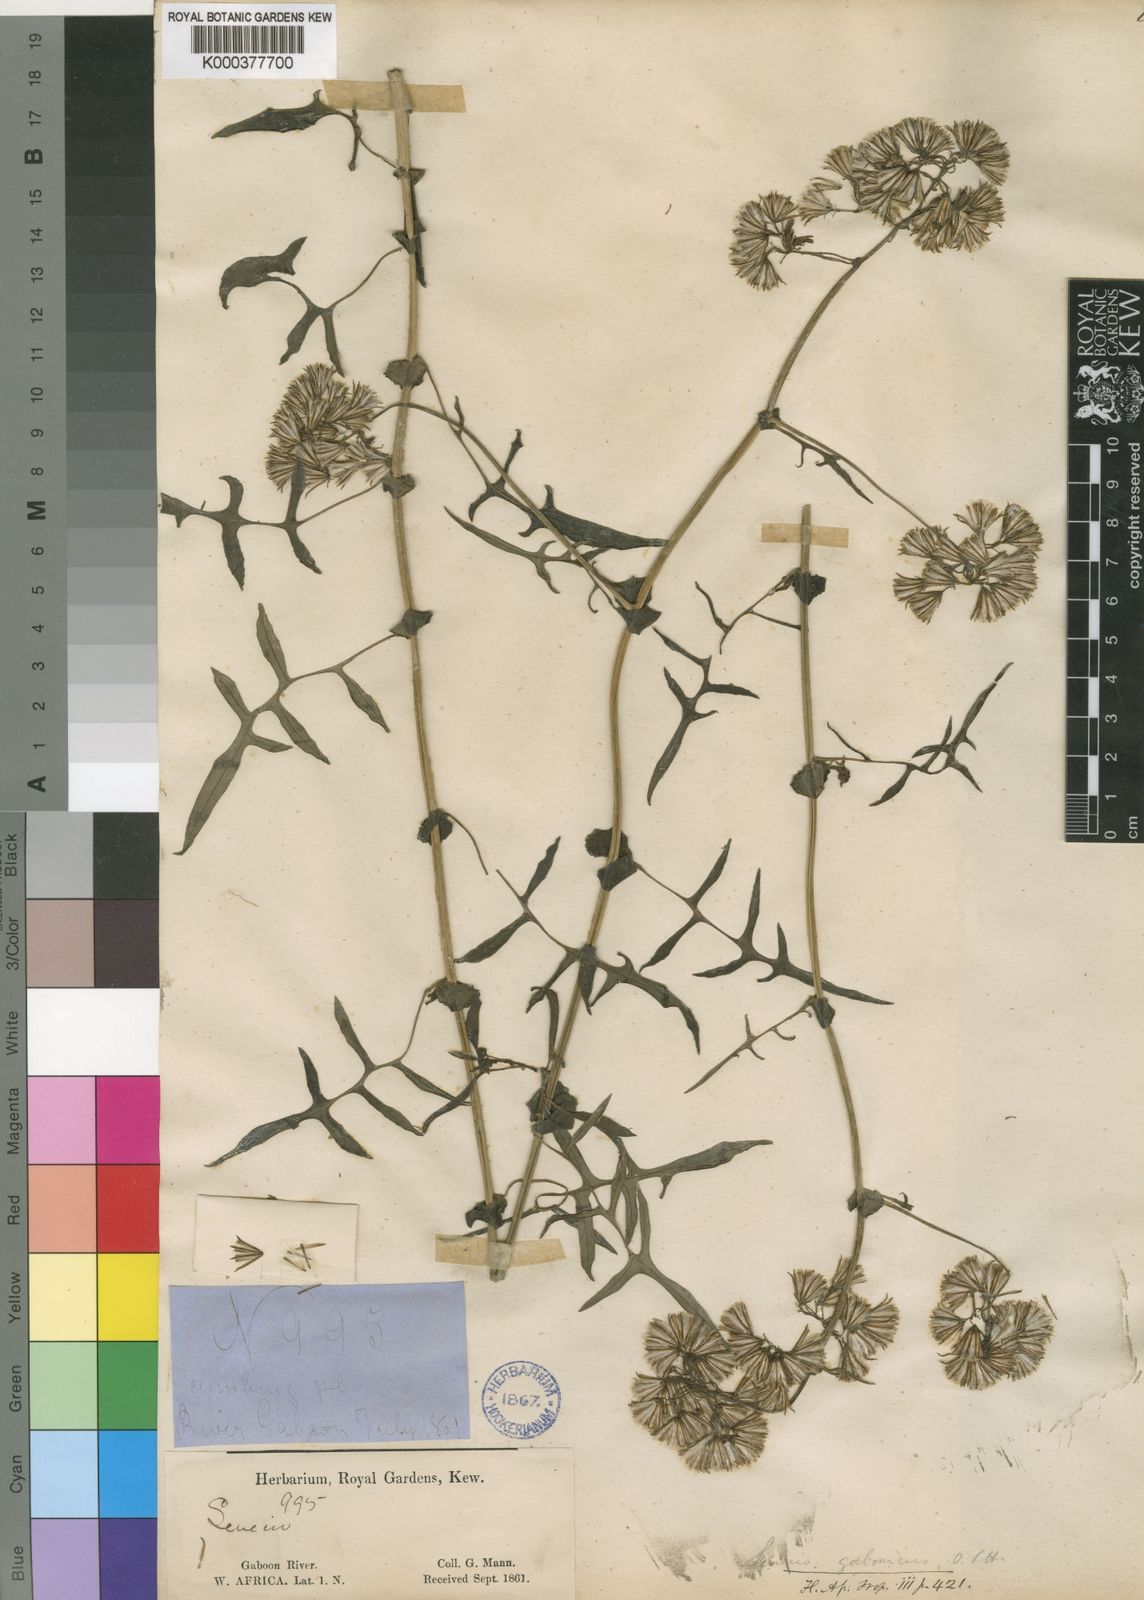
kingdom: Plantae
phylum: Tracheophyta
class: Magnoliopsida
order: Asterales
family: Asteraceae
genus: Solanecio
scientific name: Solanecio biafrae
